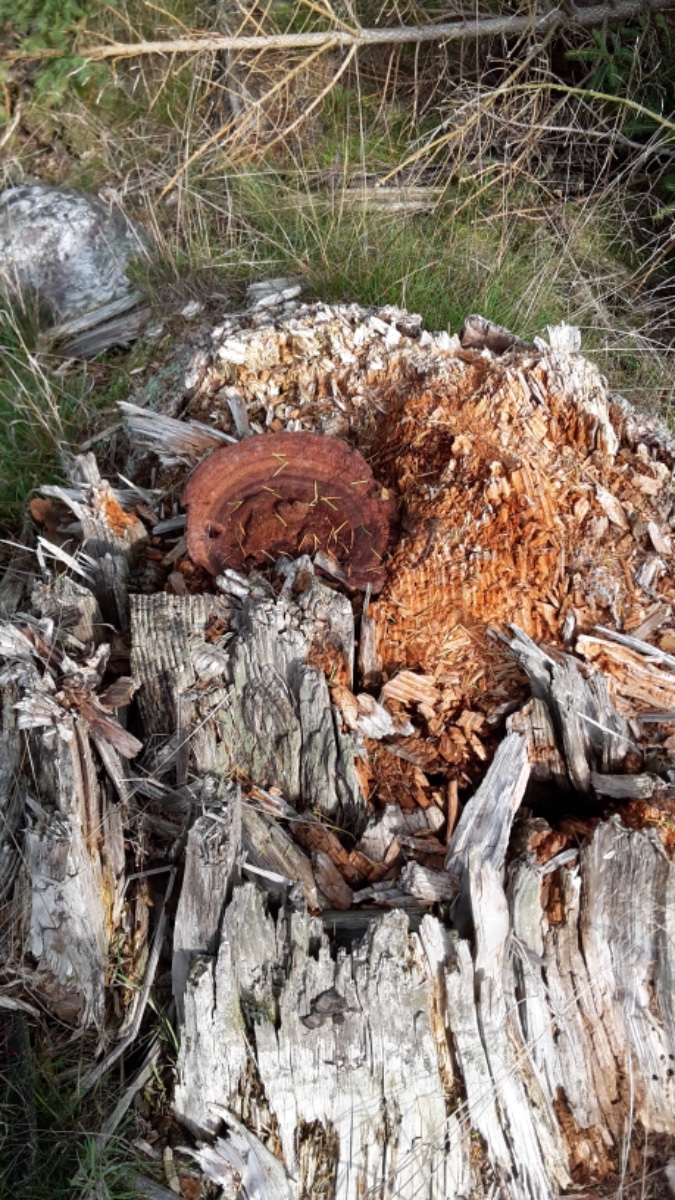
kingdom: Fungi
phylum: Basidiomycota
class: Agaricomycetes
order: Polyporales
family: Laetiporaceae
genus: Phaeolus
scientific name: Phaeolus schweinitzii
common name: brunporesvamp
